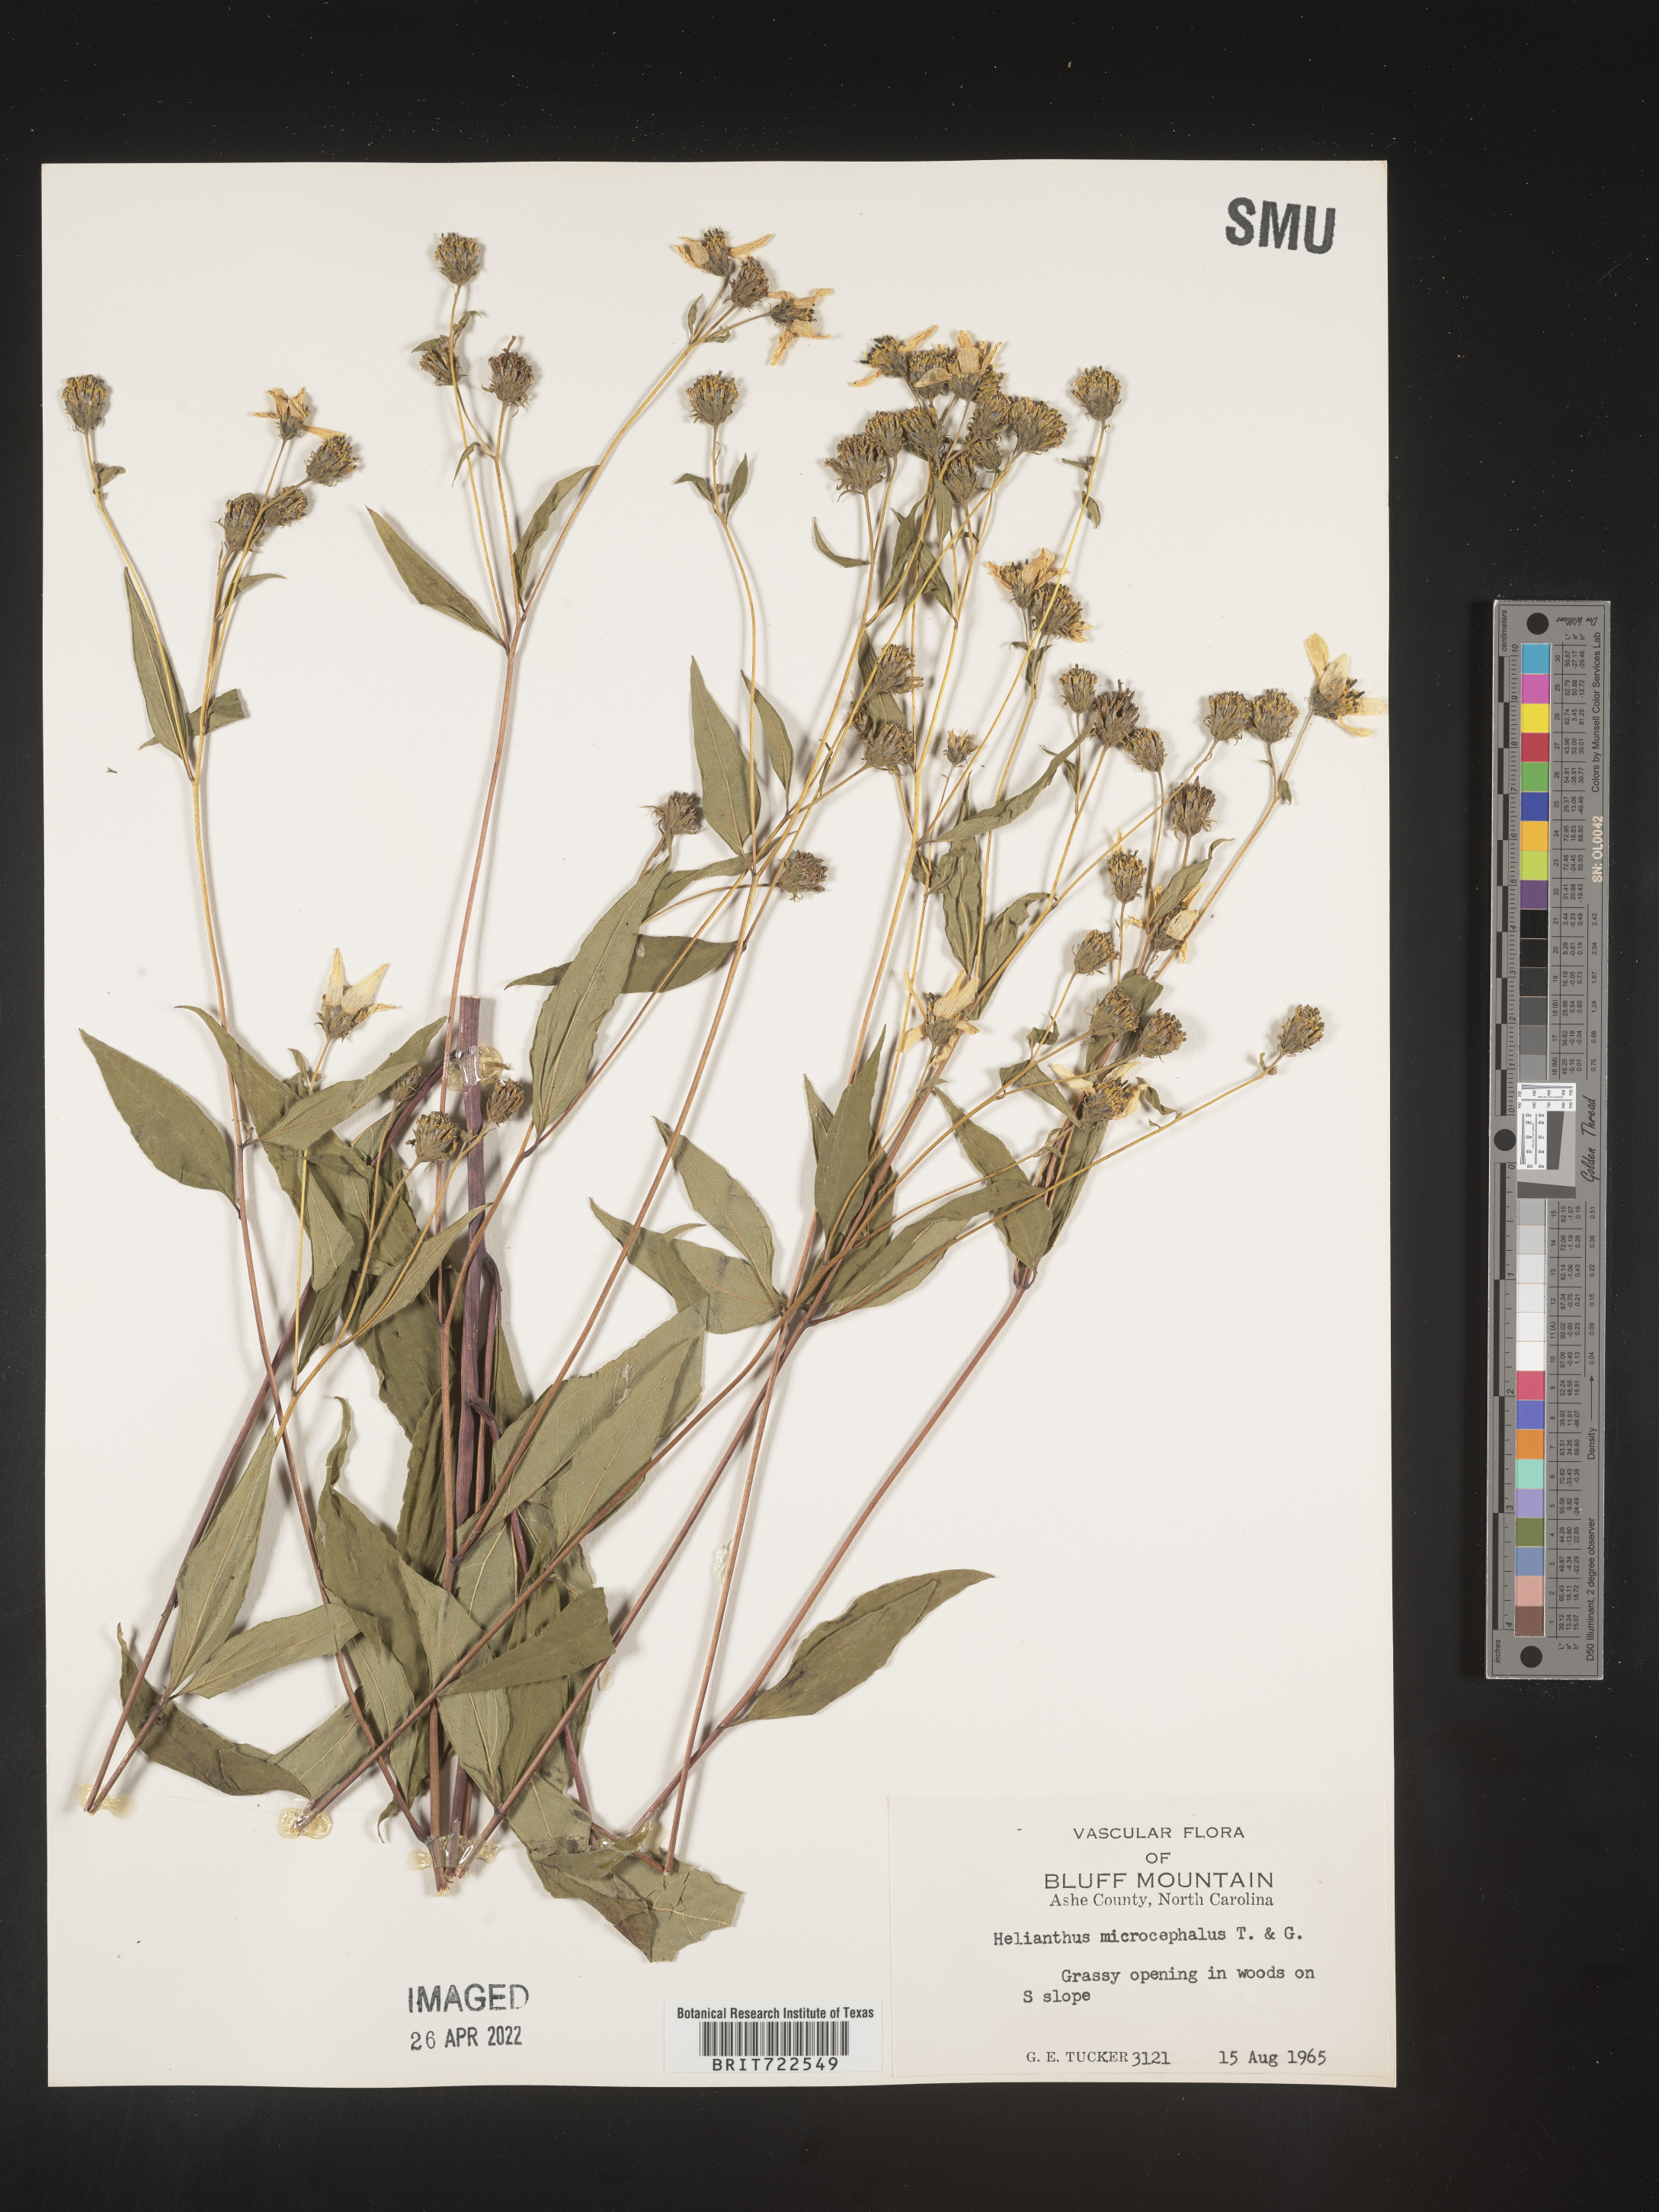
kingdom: Plantae
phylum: Tracheophyta
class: Magnoliopsida
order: Asterales
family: Asteraceae
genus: Helianthus
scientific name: Helianthus microcephalus
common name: Woodland sunflower
